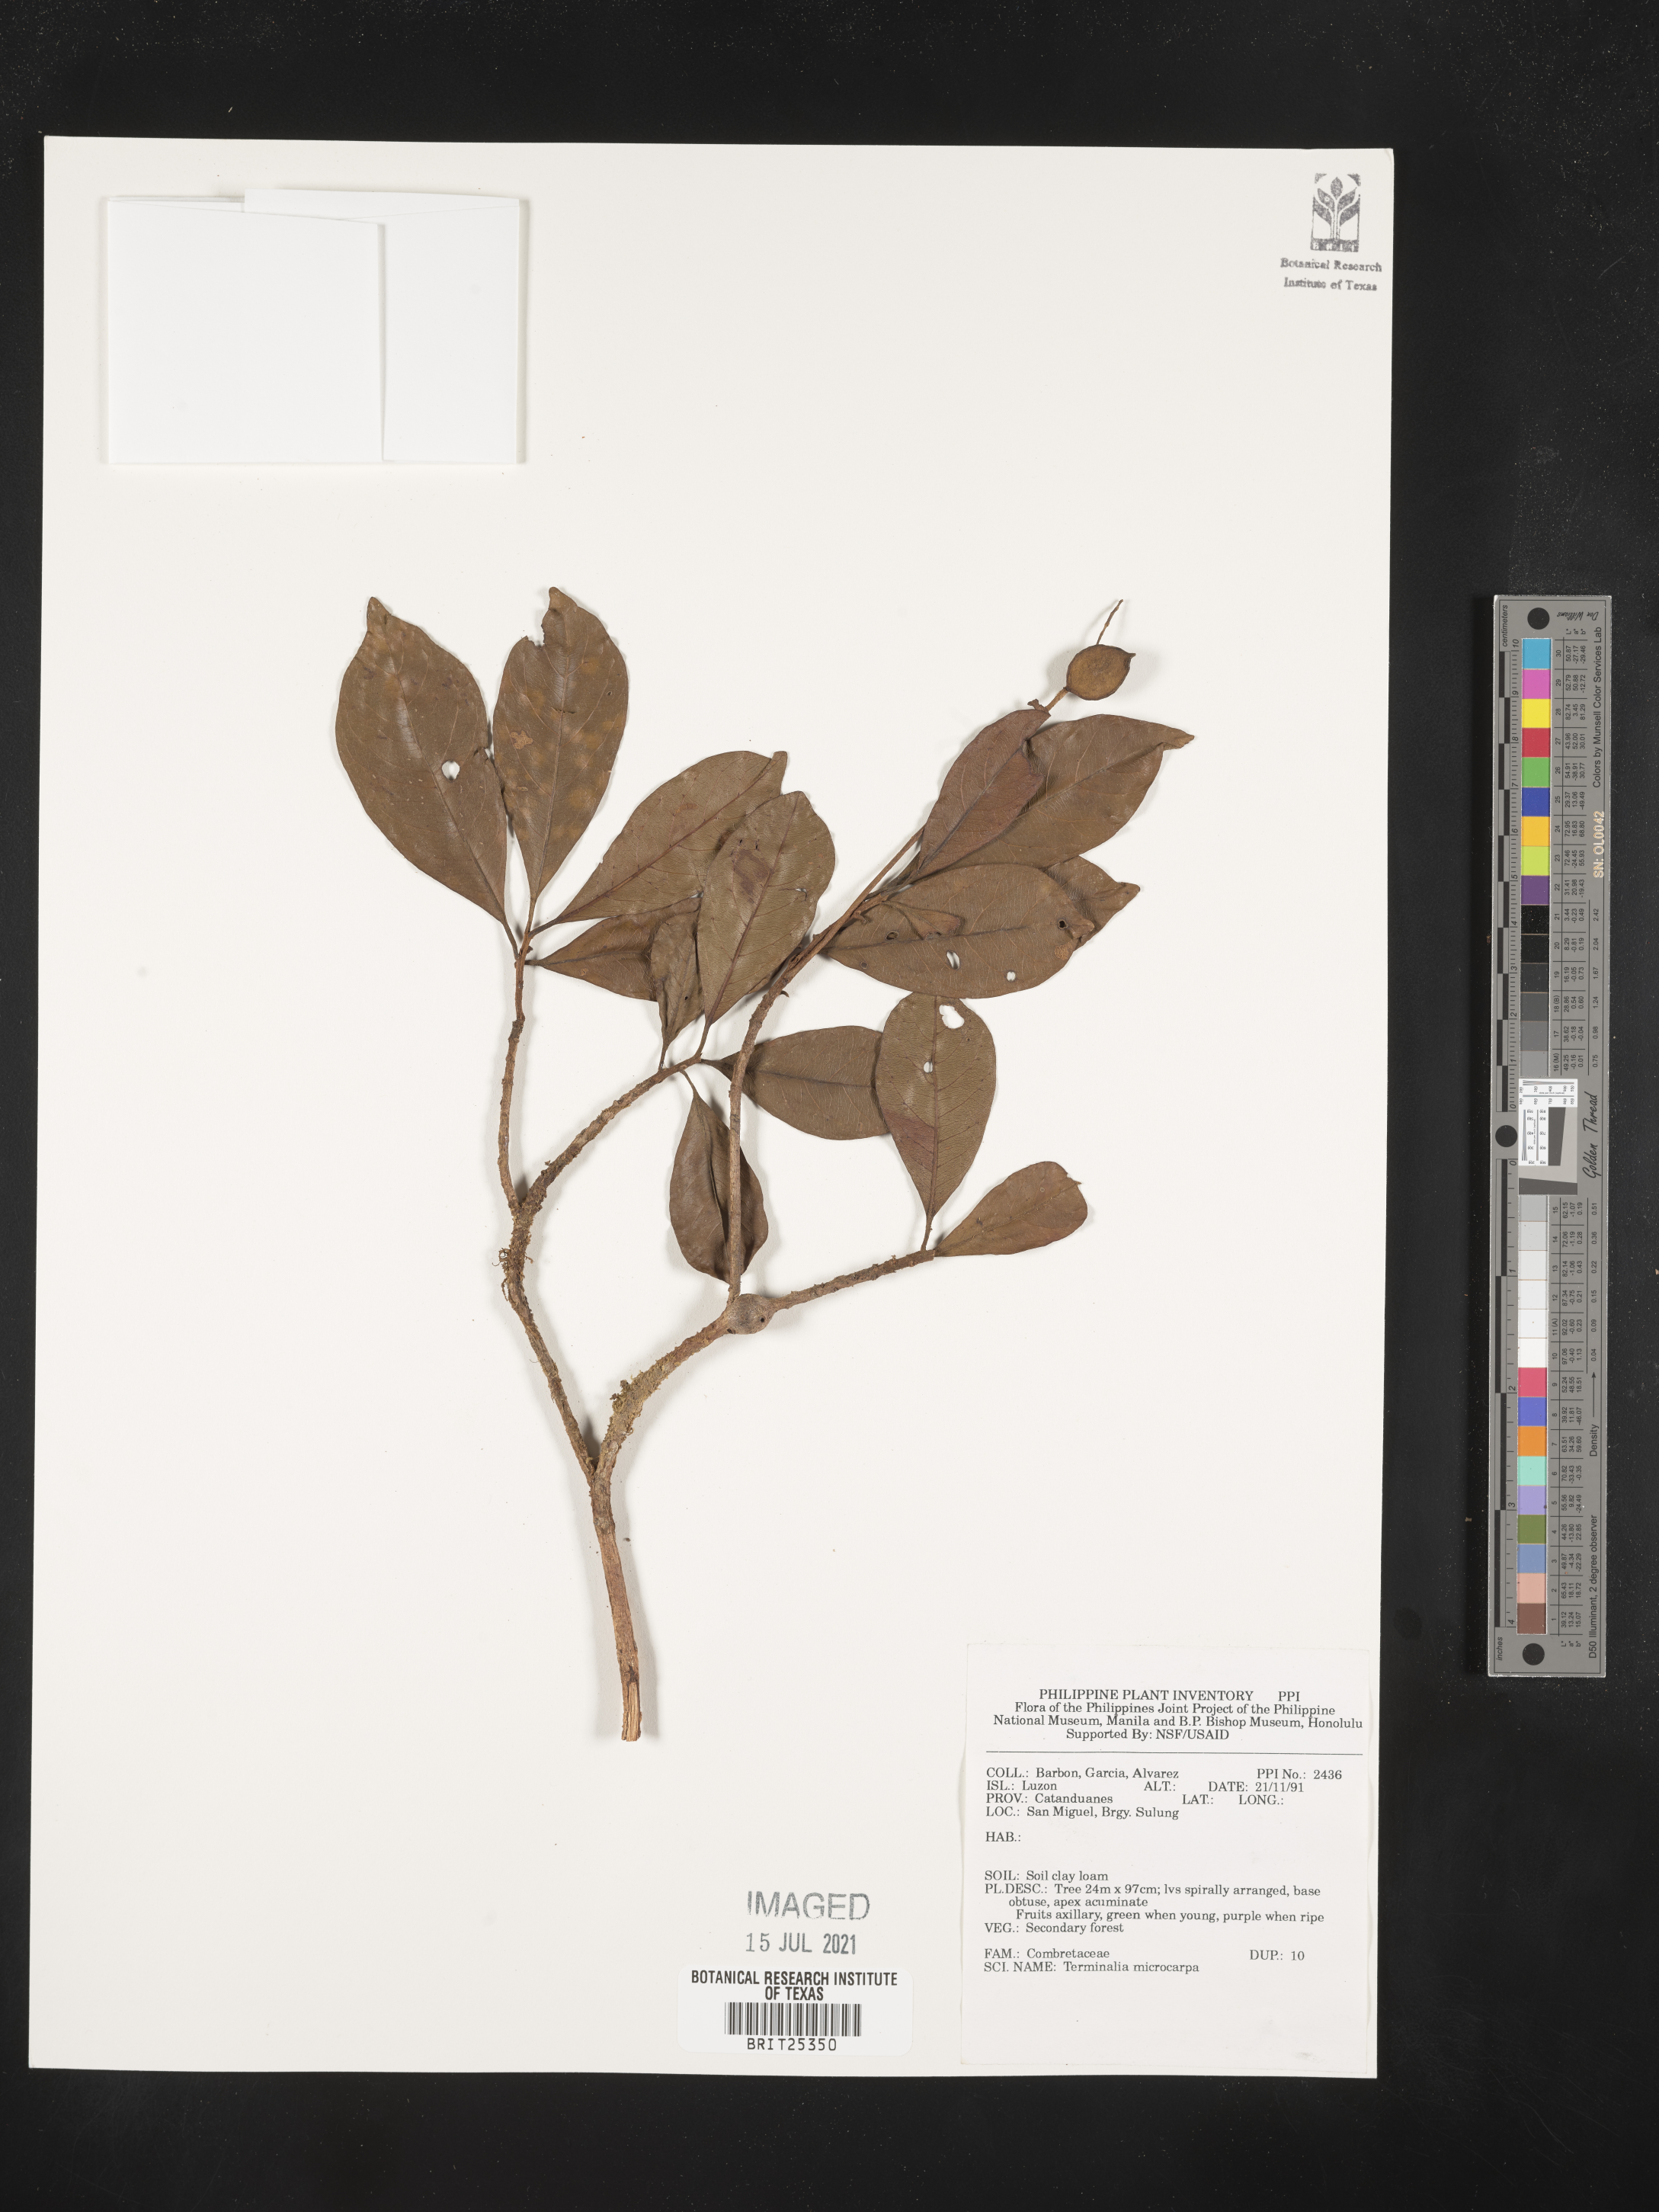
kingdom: Plantae
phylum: Tracheophyta
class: Magnoliopsida
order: Myrtales
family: Combretaceae
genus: Terminalia
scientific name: Terminalia microcarpa
